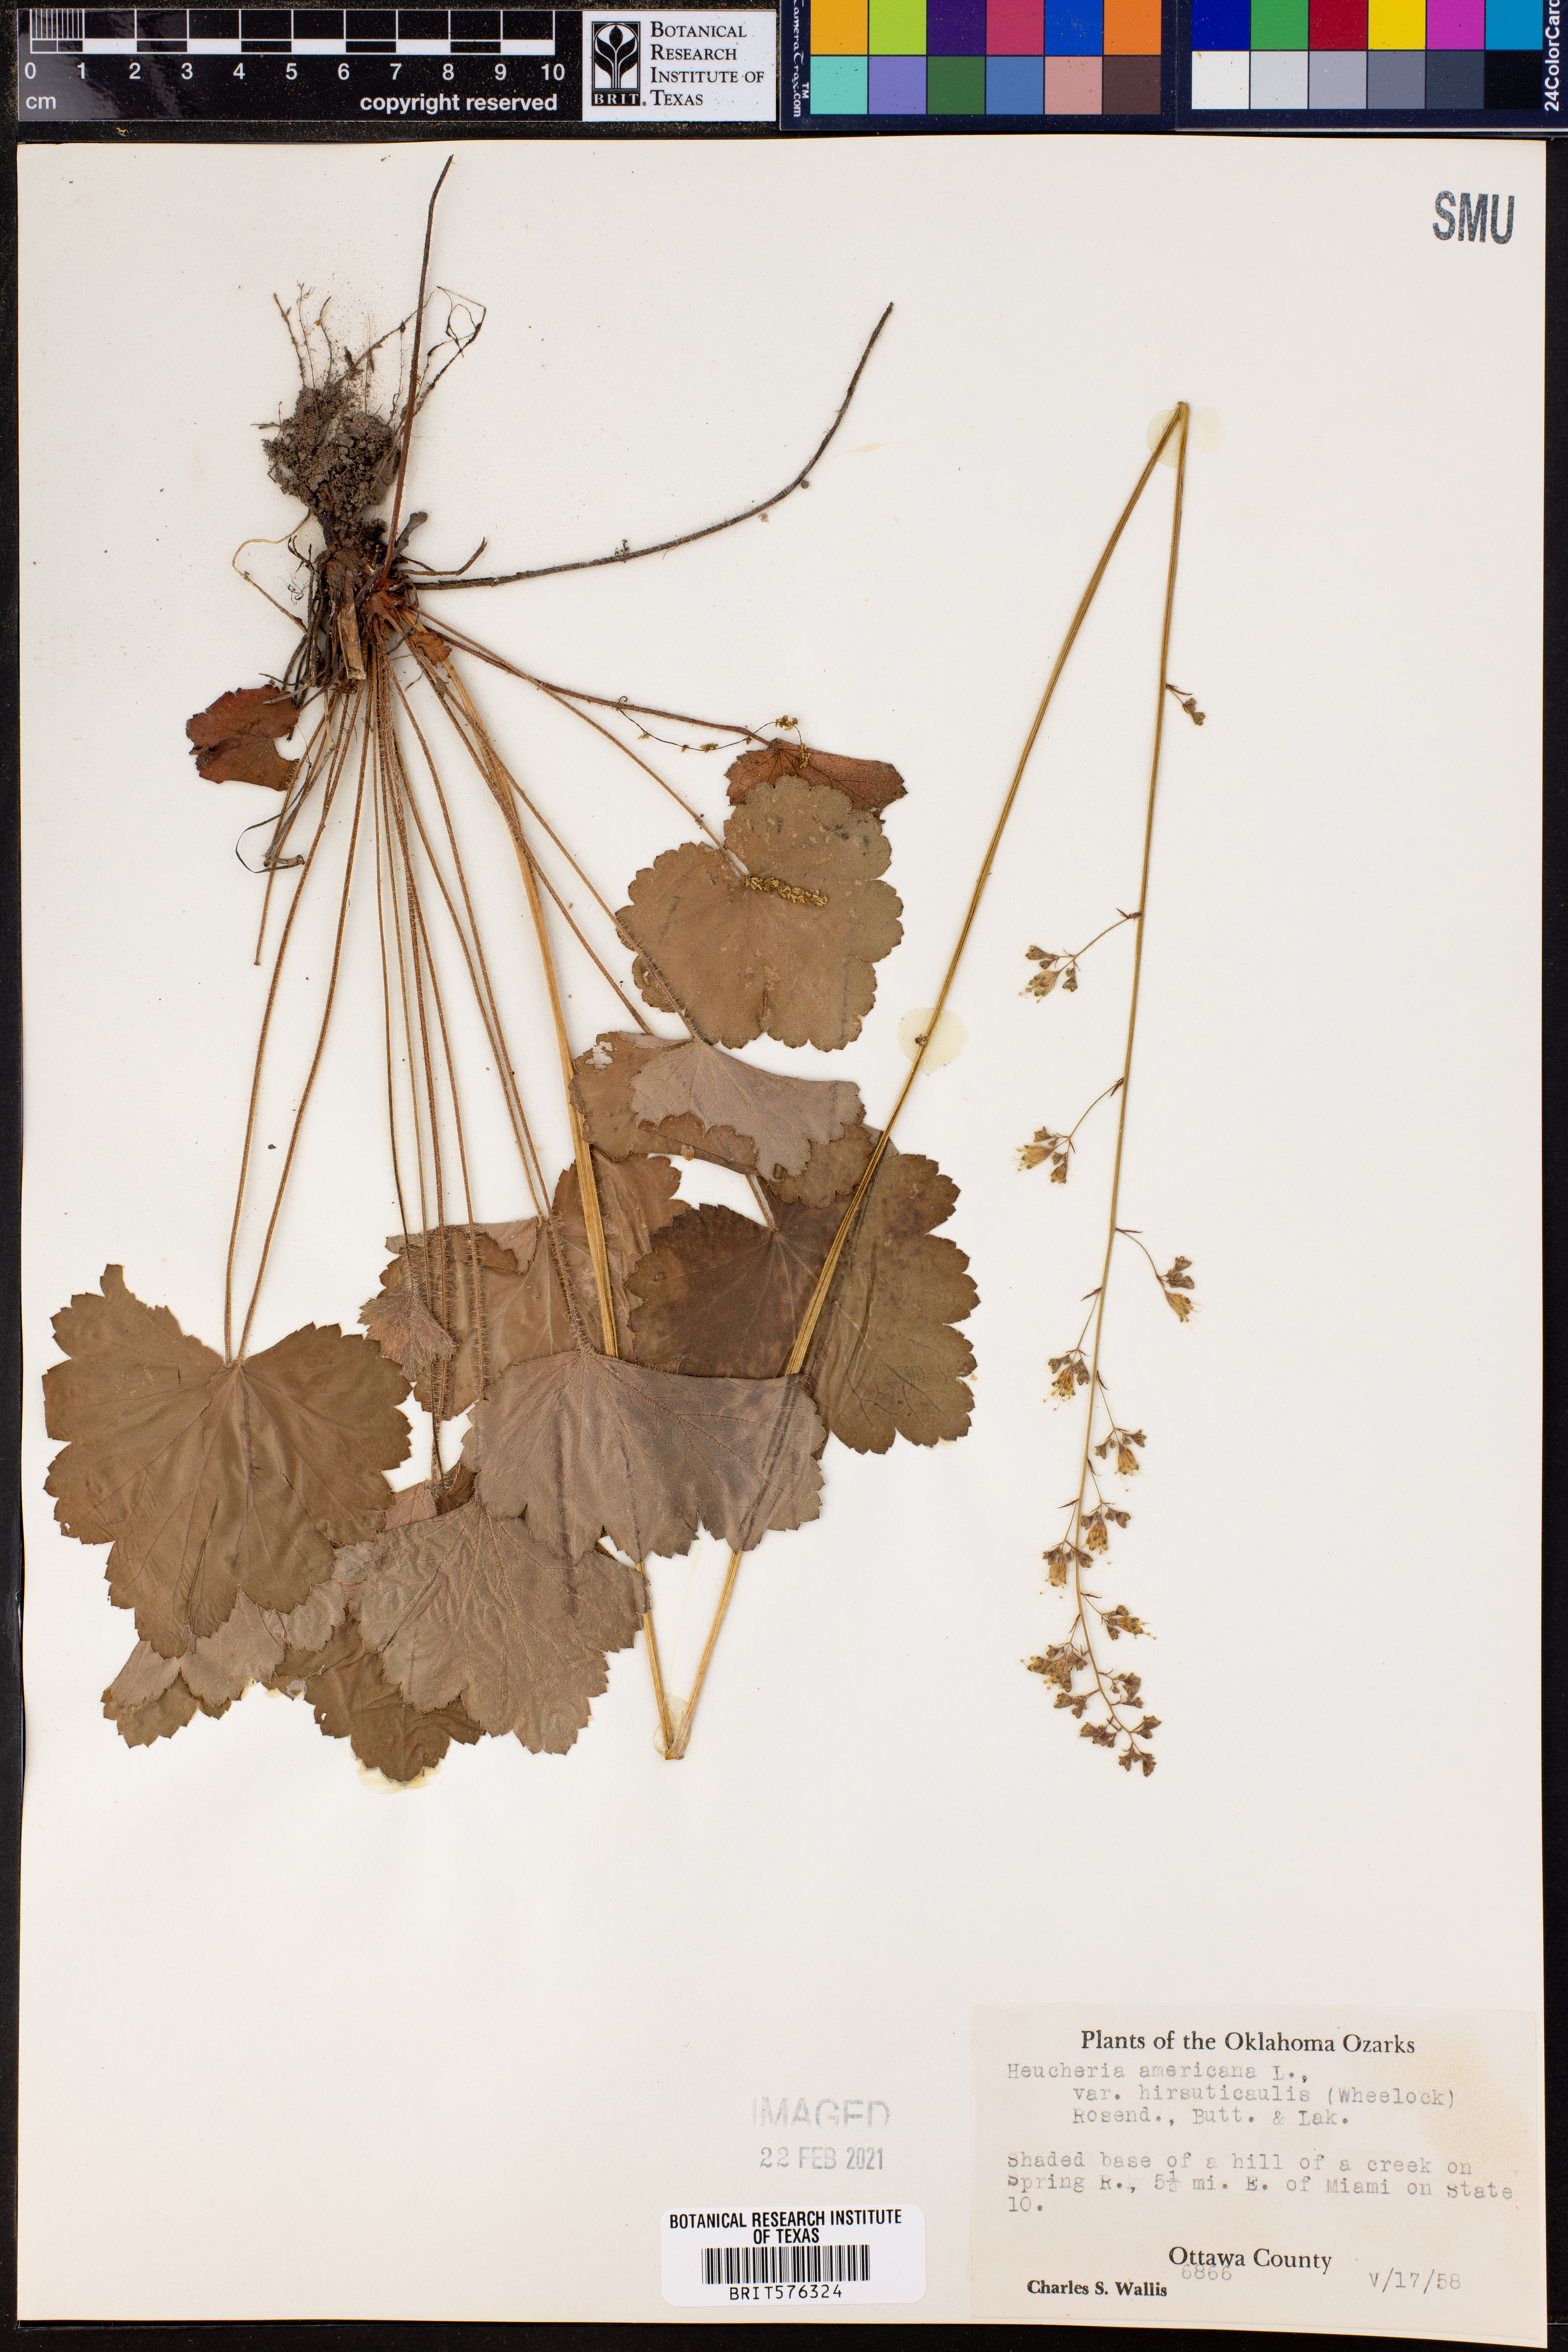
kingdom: Plantae
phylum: Tracheophyta
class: Magnoliopsida
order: Saxifragales
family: Saxifragaceae
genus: Heuchera
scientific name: Heuchera americana
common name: Alumroot
